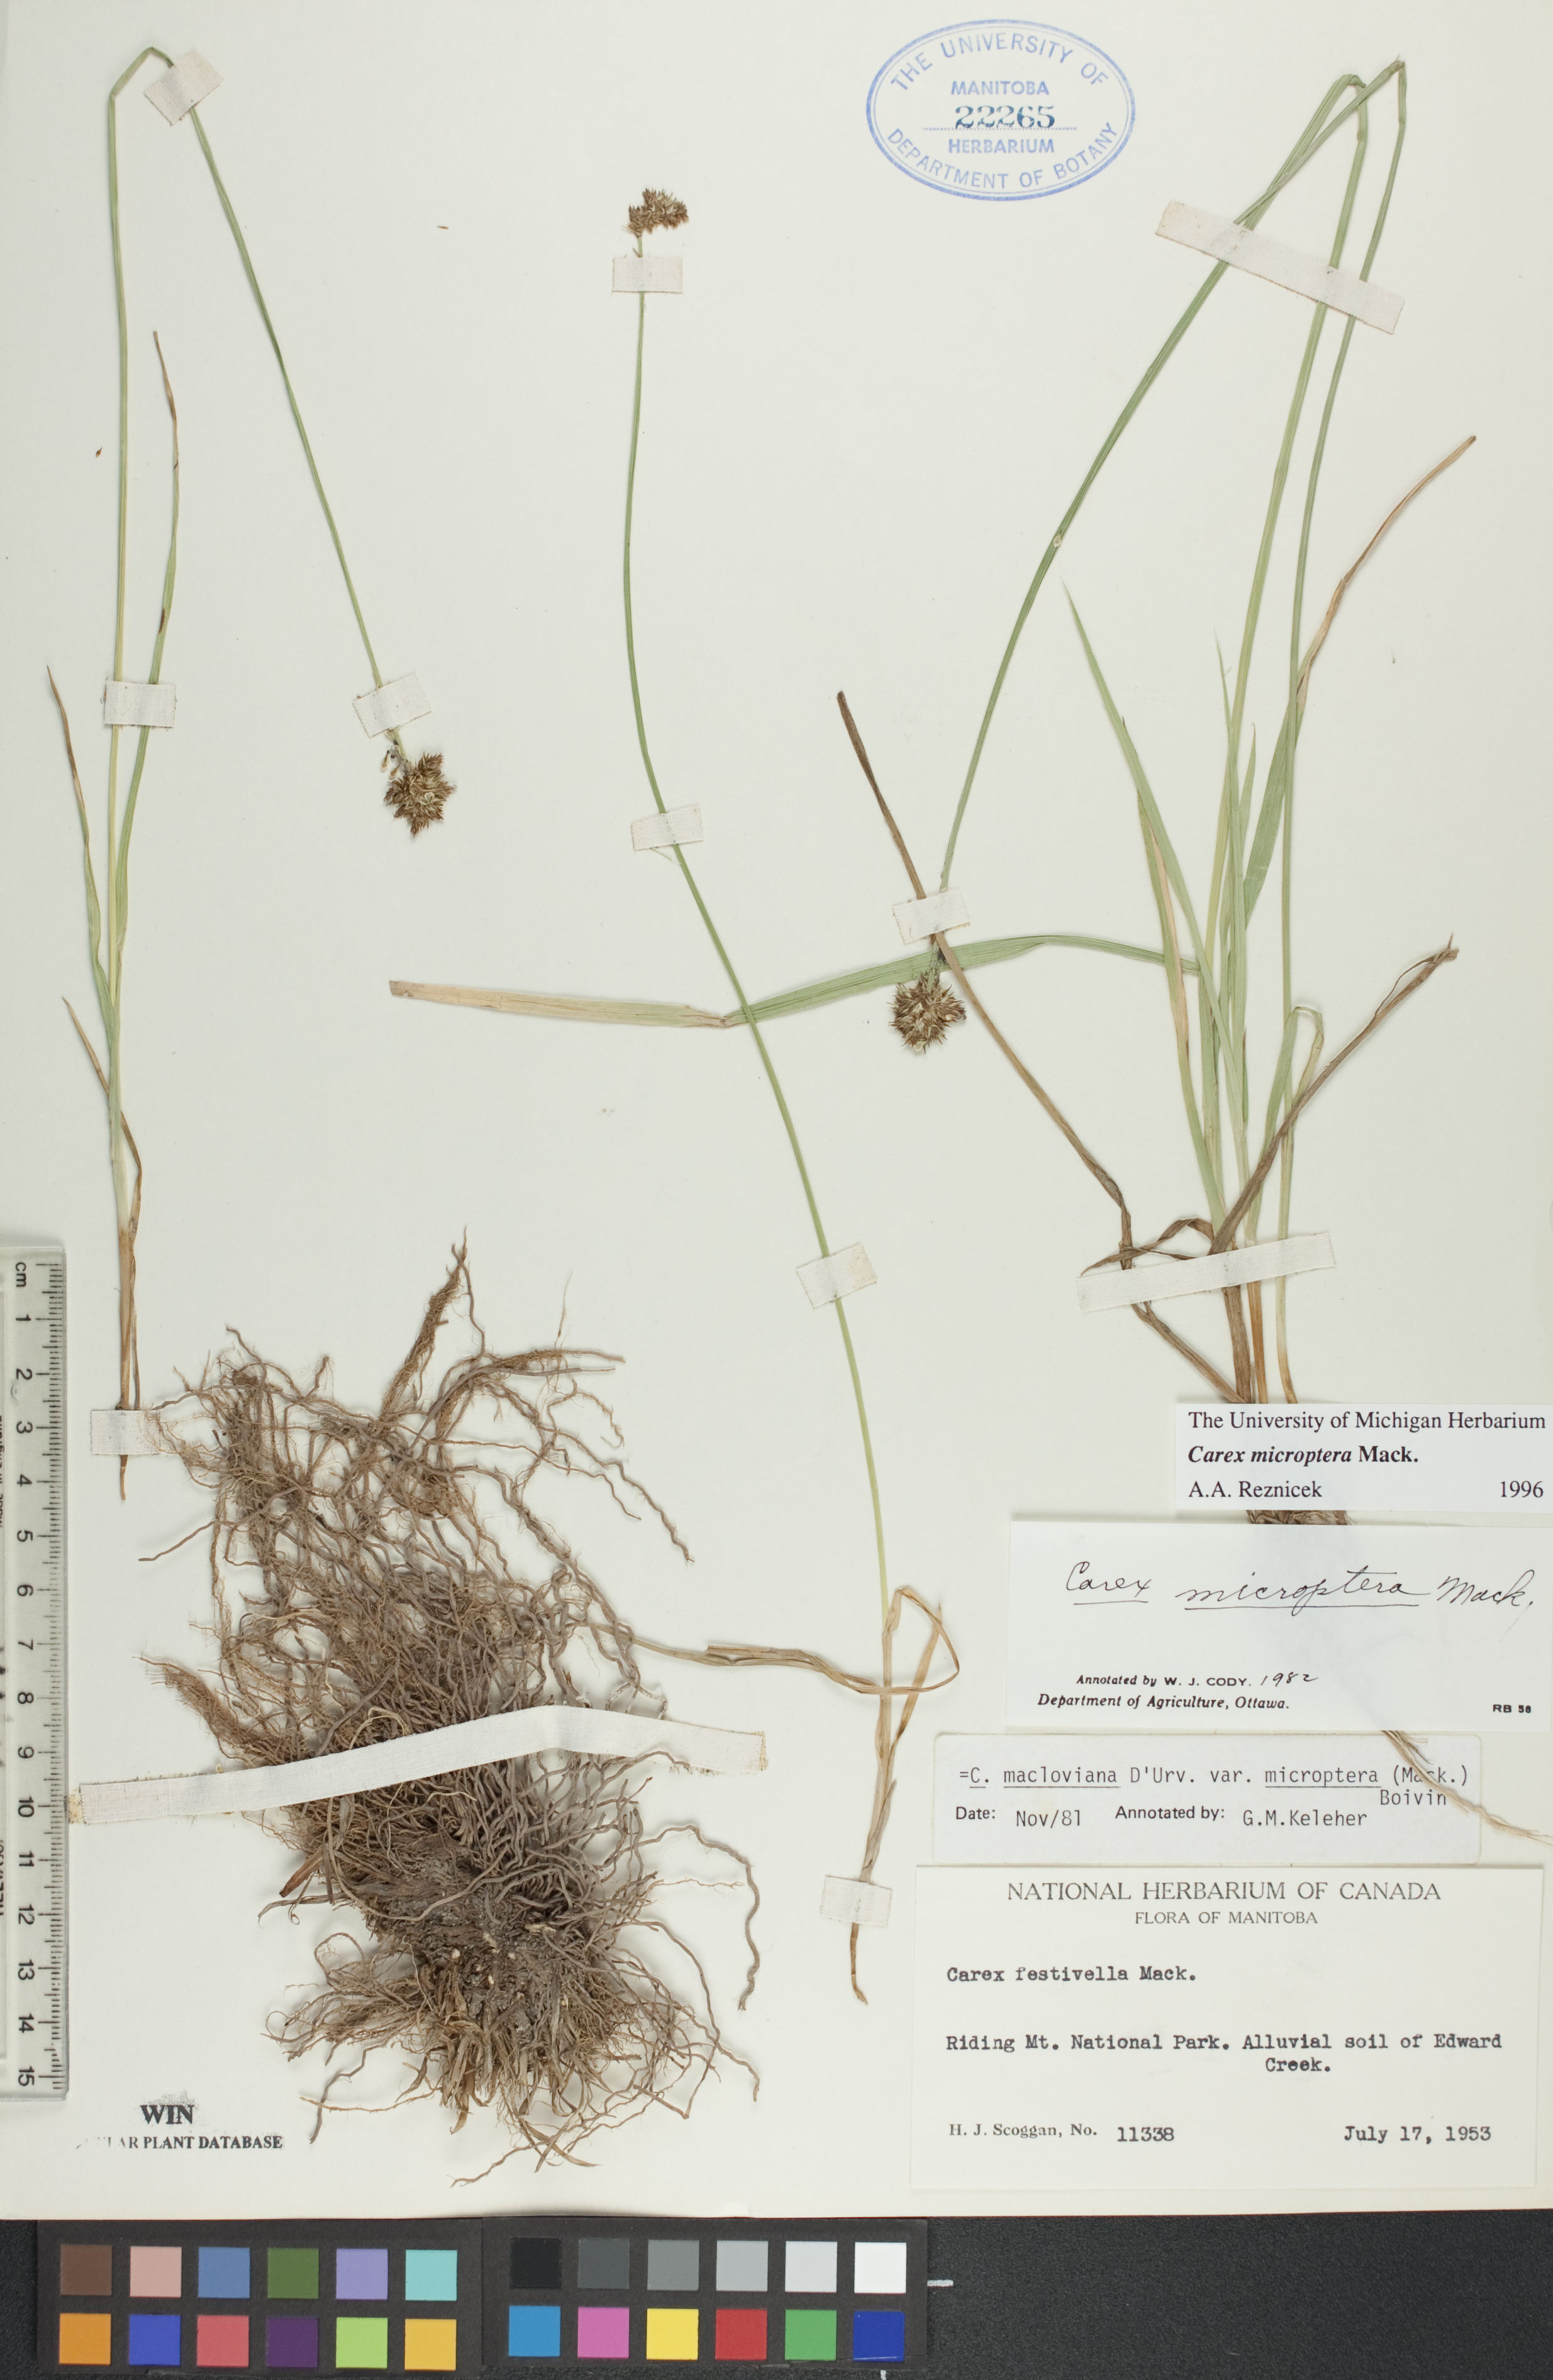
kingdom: Plantae
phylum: Tracheophyta
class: Liliopsida
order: Poales
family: Cyperaceae
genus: Carex
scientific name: Carex microptera
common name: Oval-headed sedge
